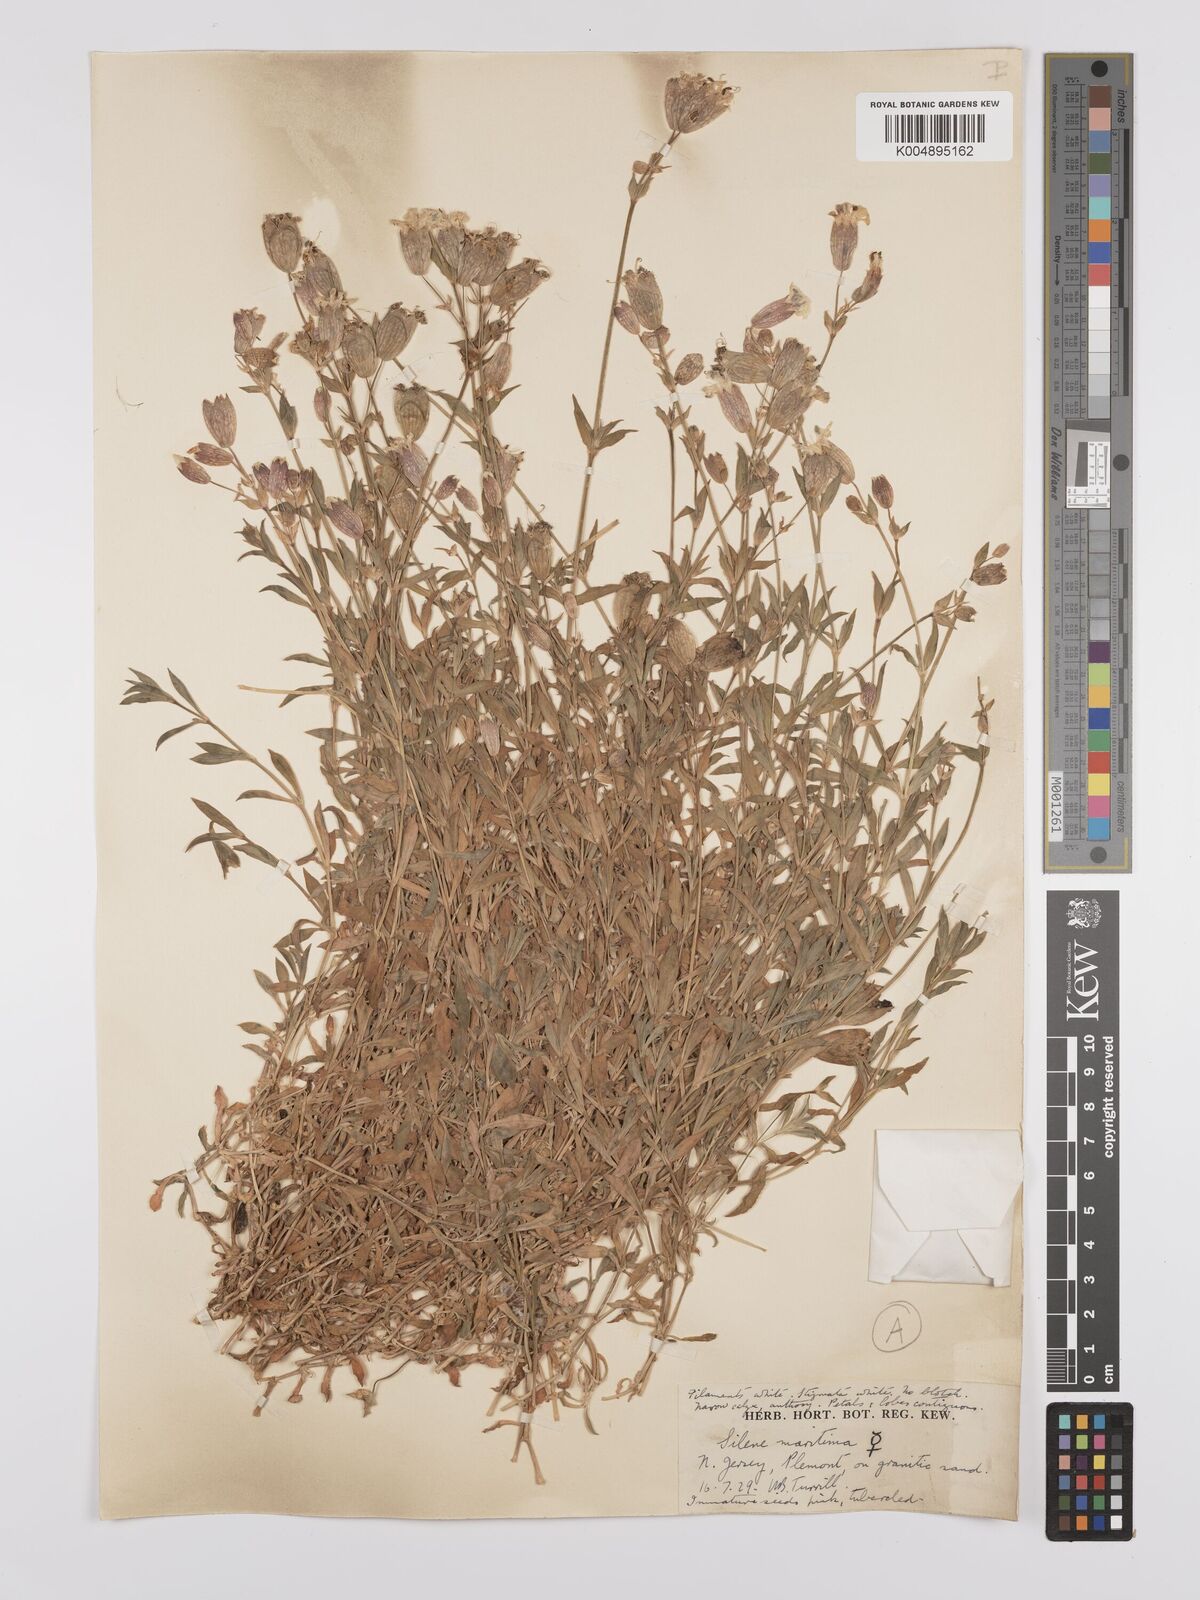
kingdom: Plantae
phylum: Tracheophyta
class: Magnoliopsida
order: Caryophyllales
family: Caryophyllaceae
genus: Silene
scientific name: Silene uniflora
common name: Sea campion
